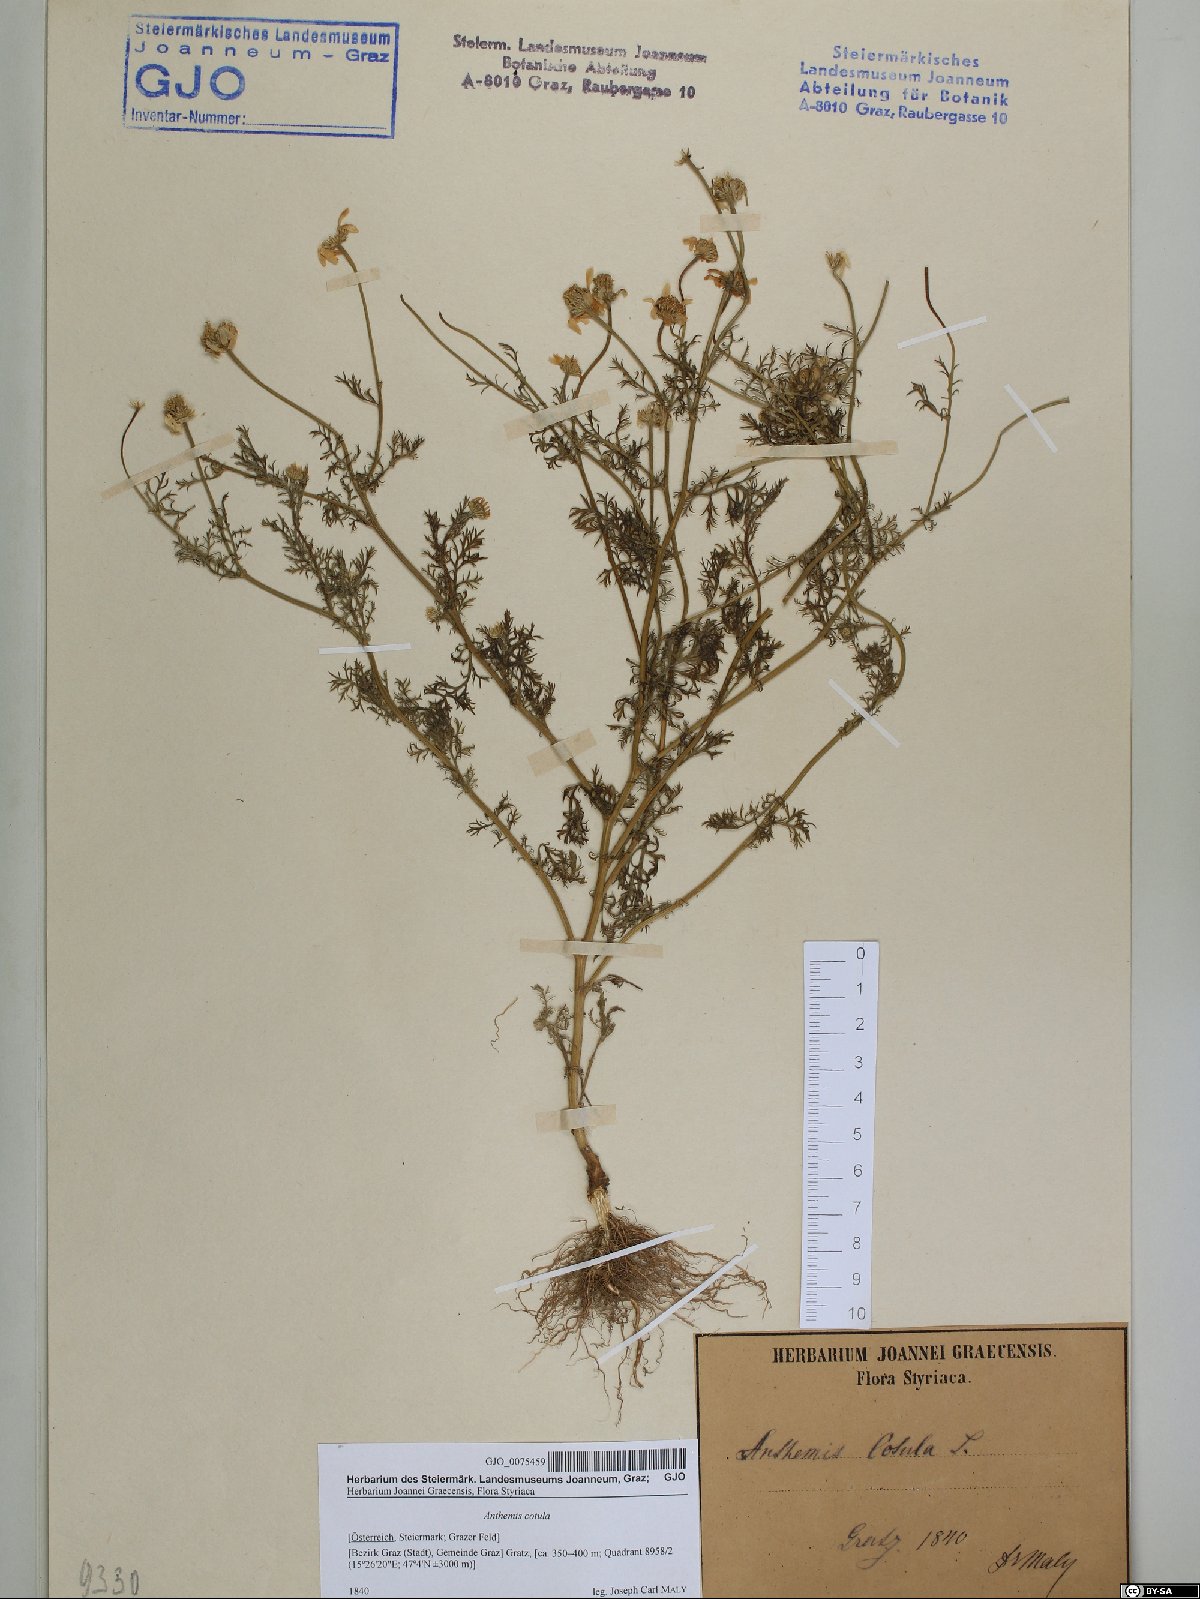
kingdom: Plantae
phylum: Tracheophyta
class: Magnoliopsida
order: Asterales
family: Asteraceae
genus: Anthemis
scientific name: Anthemis cotula
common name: Stinking chamomile
